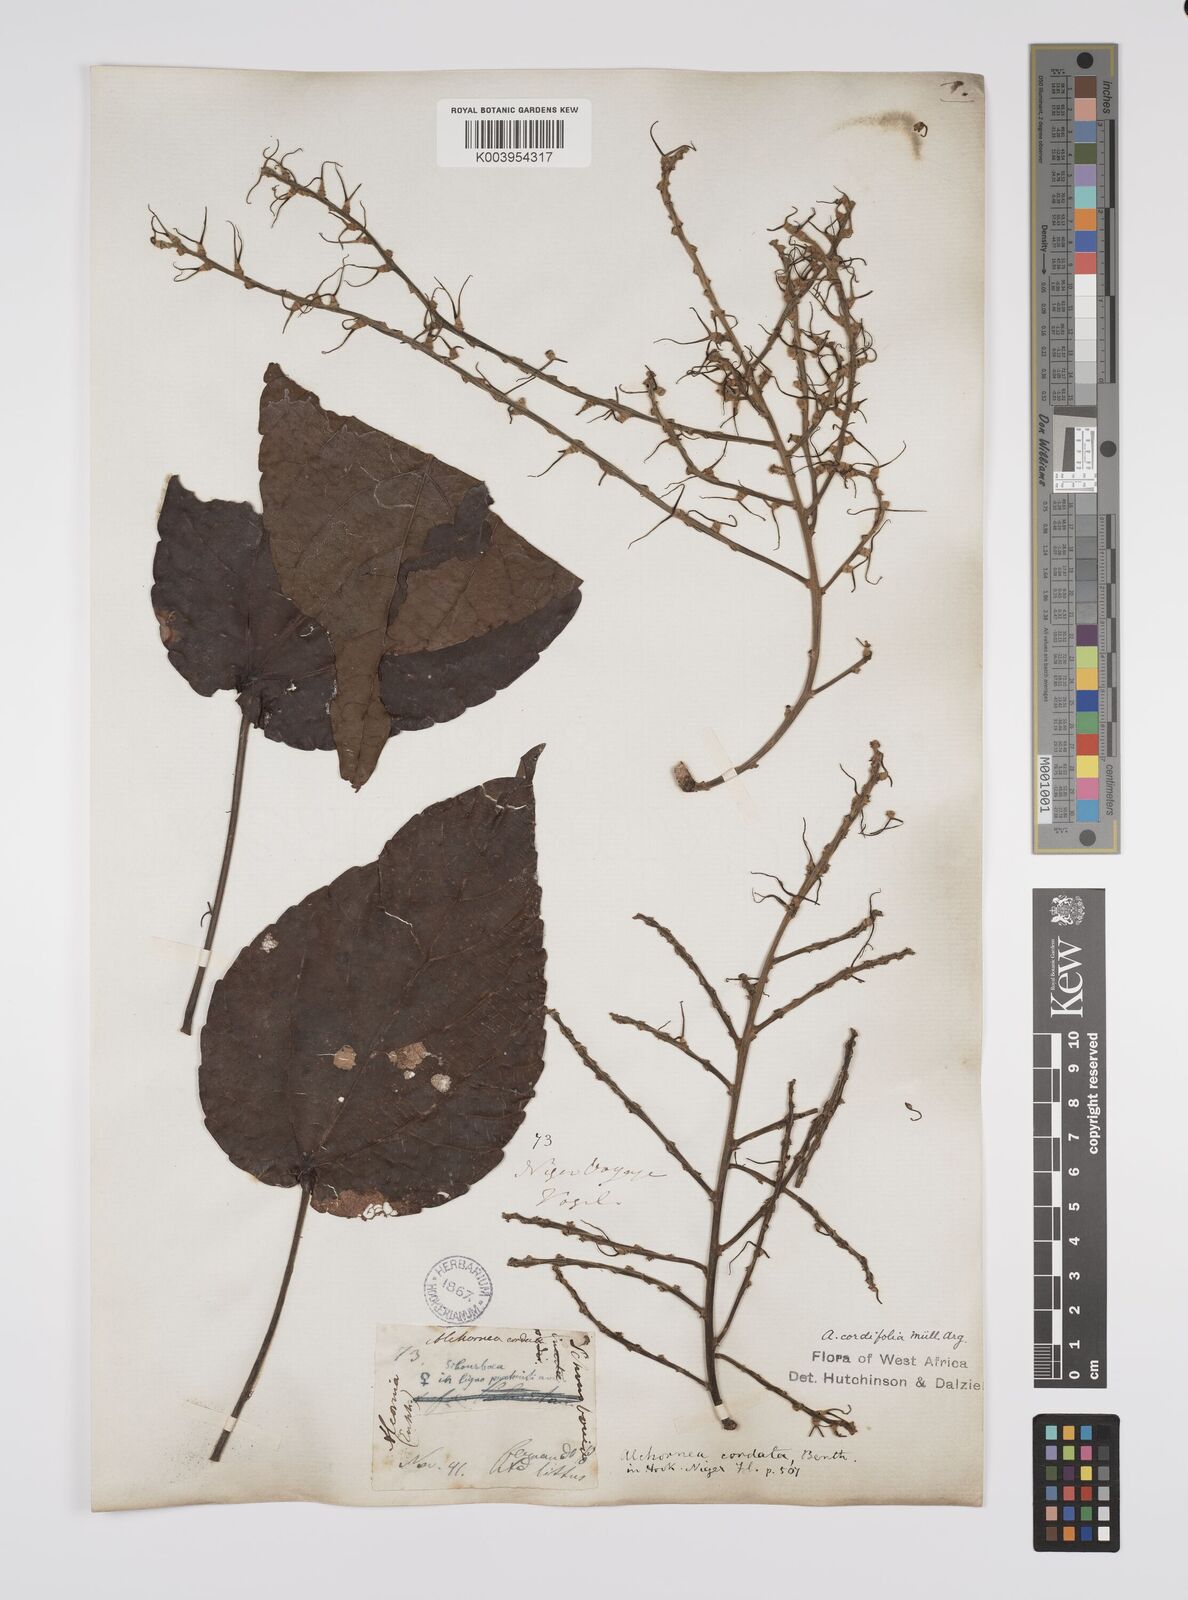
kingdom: Plantae
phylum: Tracheophyta
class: Magnoliopsida
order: Malpighiales
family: Euphorbiaceae
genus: Alchornea
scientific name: Alchornea cordifolia
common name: Christmasbush
